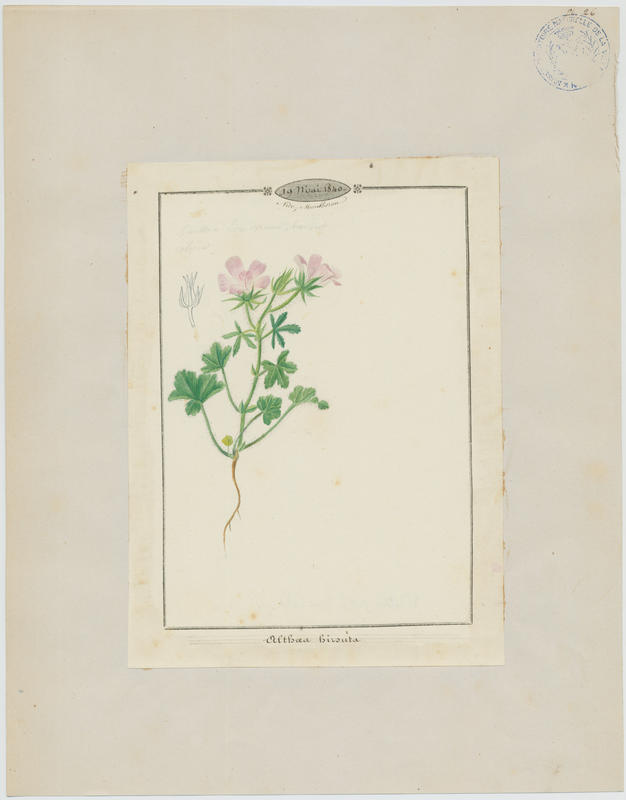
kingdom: Plantae
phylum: Tracheophyta
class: Magnoliopsida
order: Malvales
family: Malvaceae
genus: Althaea
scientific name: Althaea hirsuta
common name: Rough marsh-mallow
